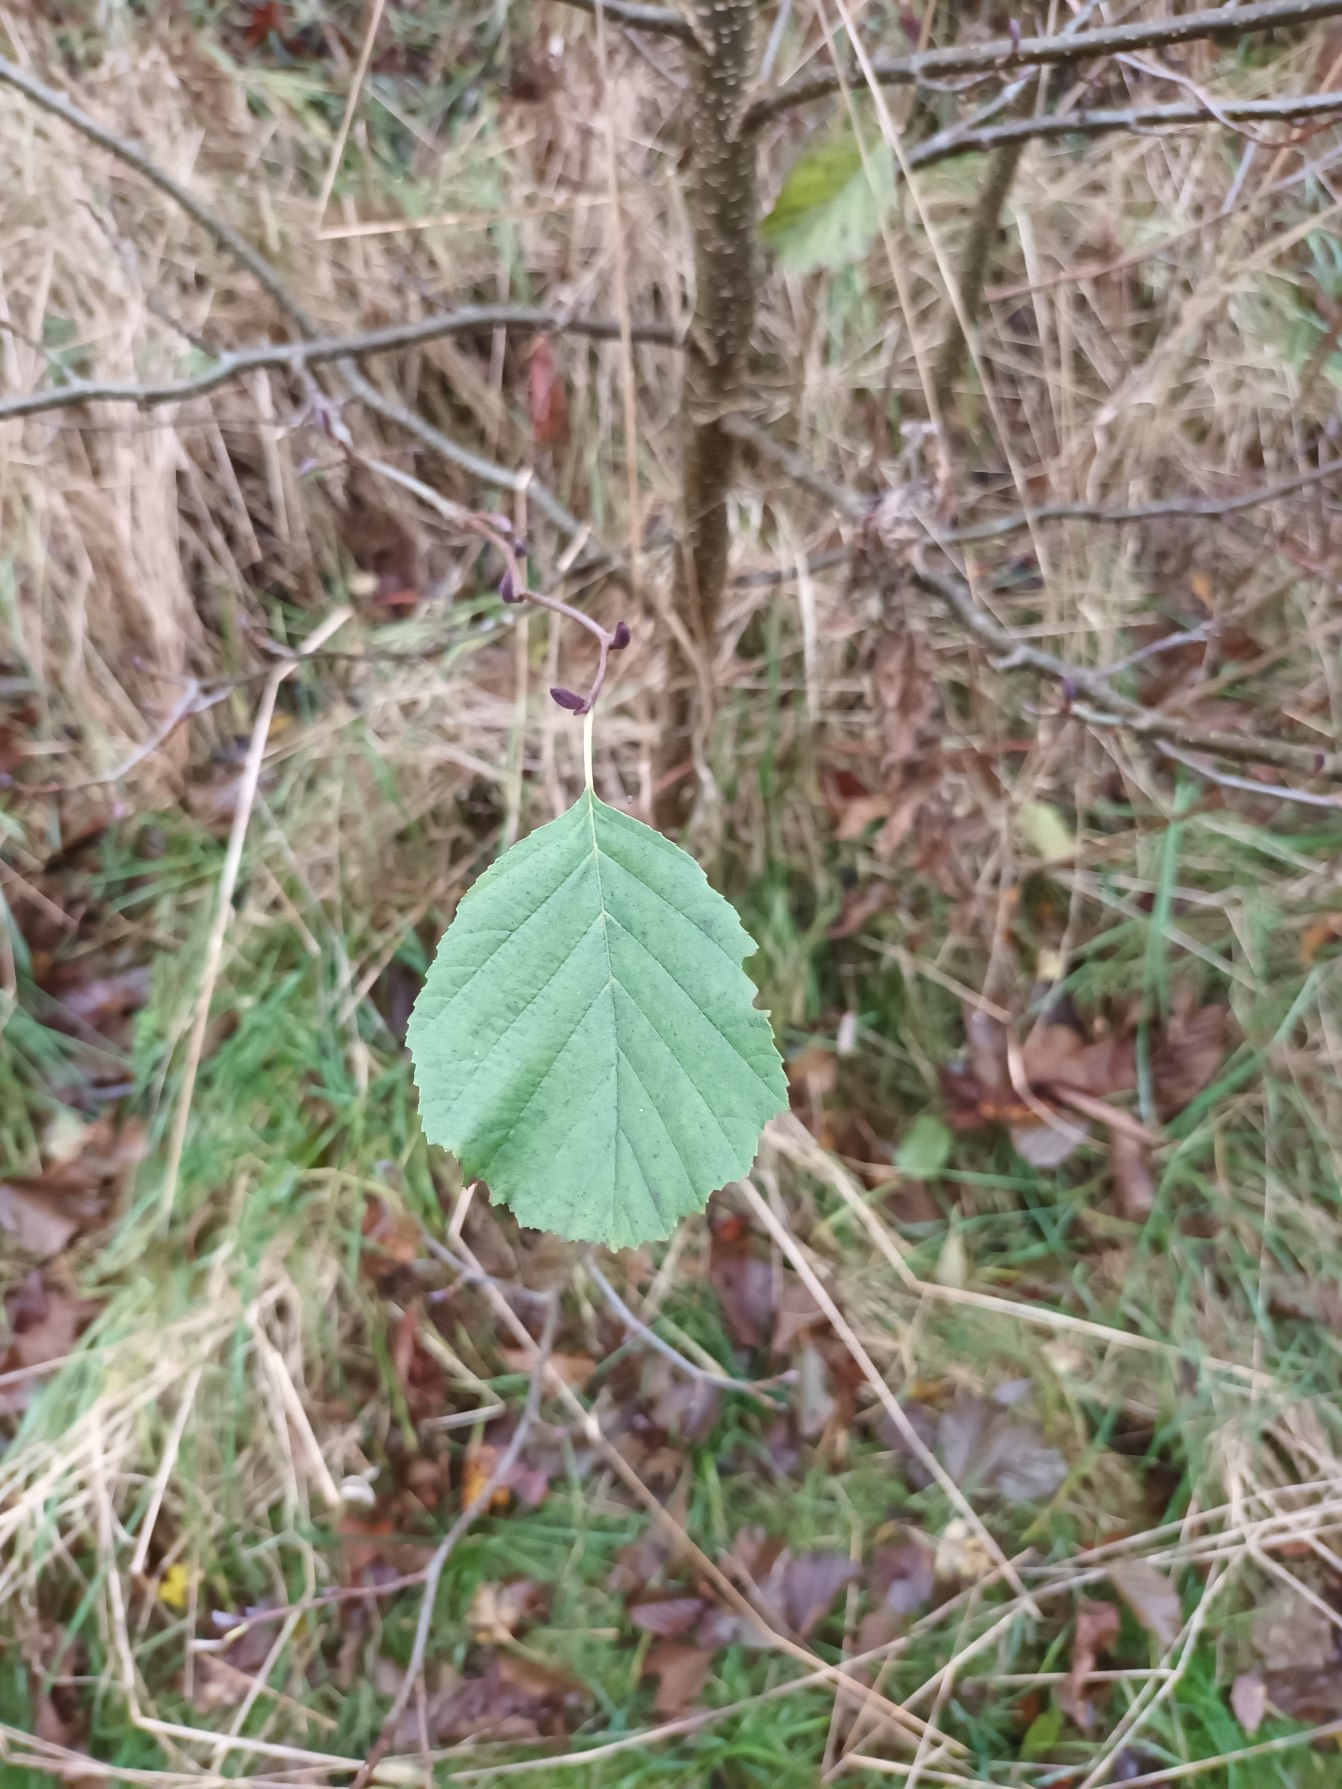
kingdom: Plantae
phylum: Tracheophyta
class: Magnoliopsida
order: Fagales
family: Betulaceae
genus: Alnus
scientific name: Alnus glutinosa
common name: Rød-el
